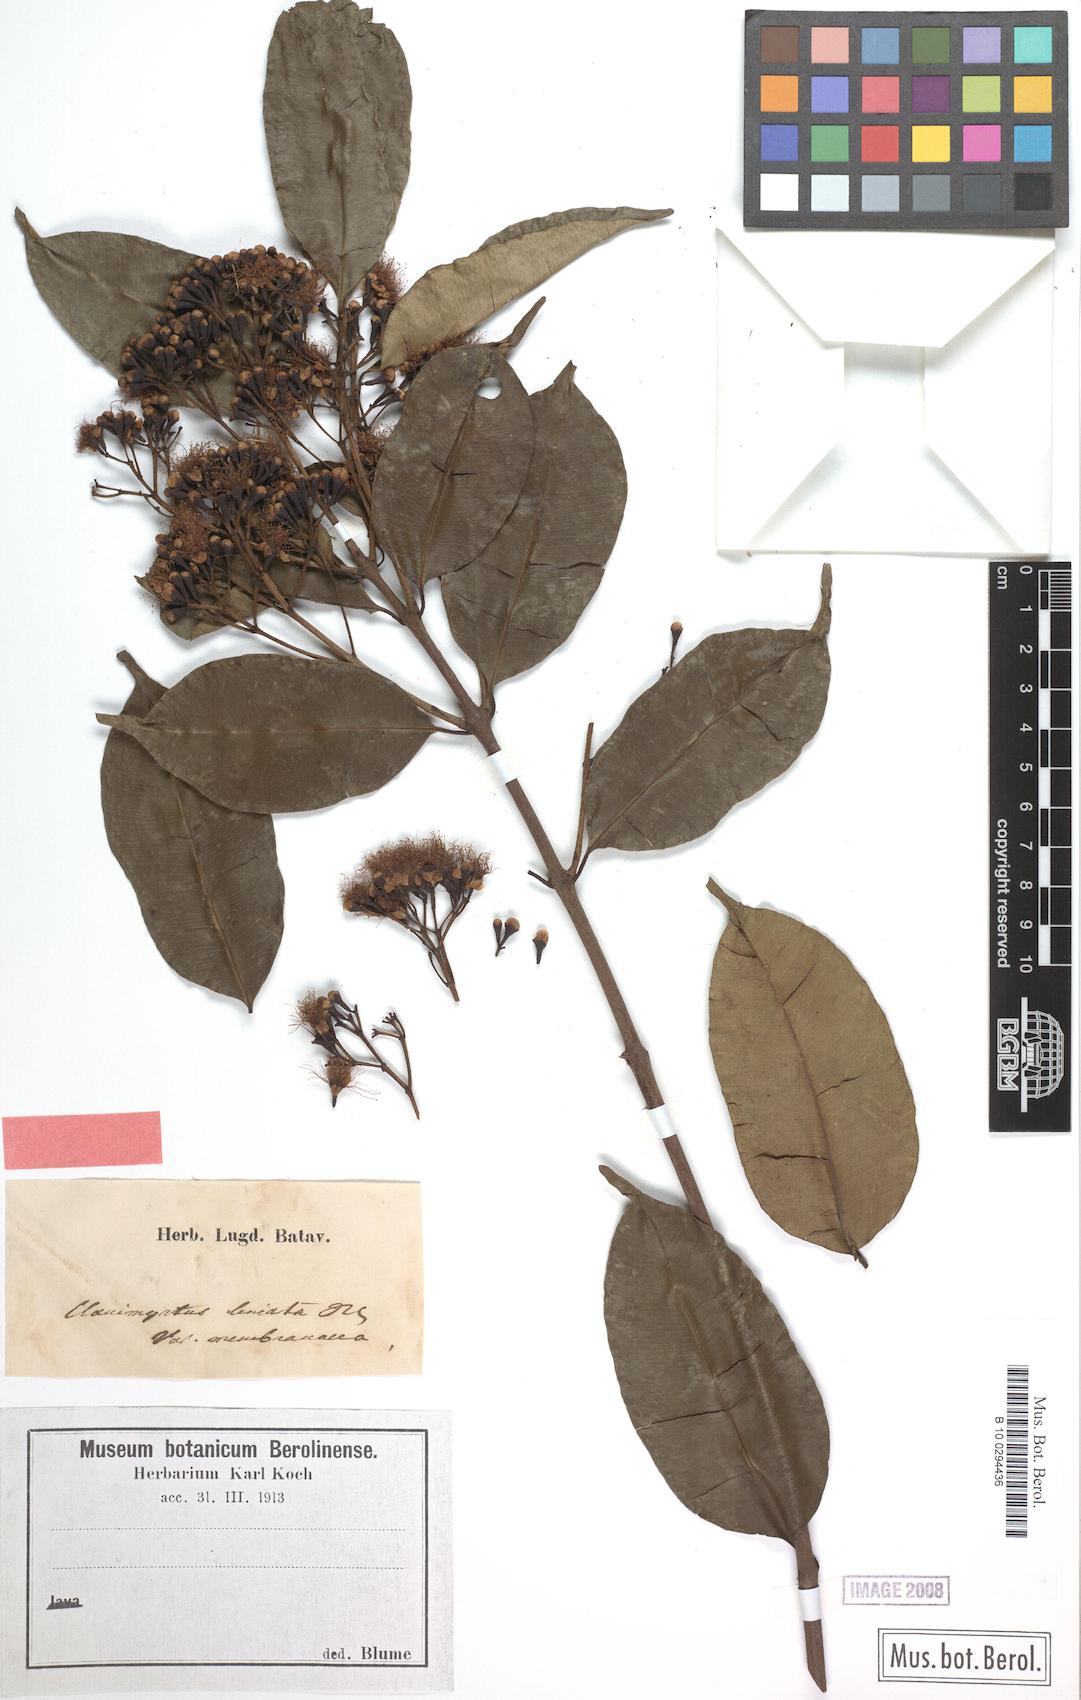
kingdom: Plantae
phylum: Tracheophyta
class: Magnoliopsida
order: Myrtales
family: Myrtaceae
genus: Syzygium
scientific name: Syzygium lineatum
